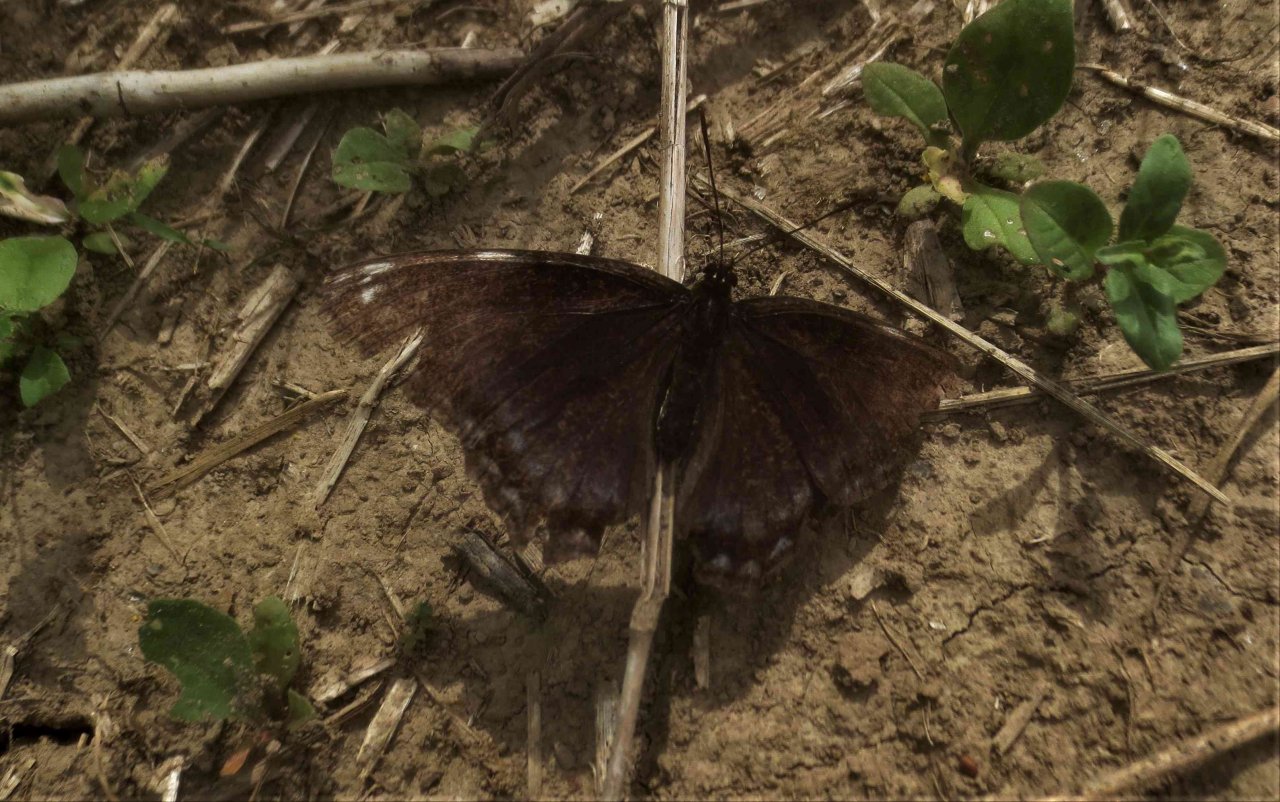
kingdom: Animalia
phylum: Arthropoda
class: Insecta
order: Lepidoptera
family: Nymphalidae
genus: Limenitis
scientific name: Limenitis astyanax
